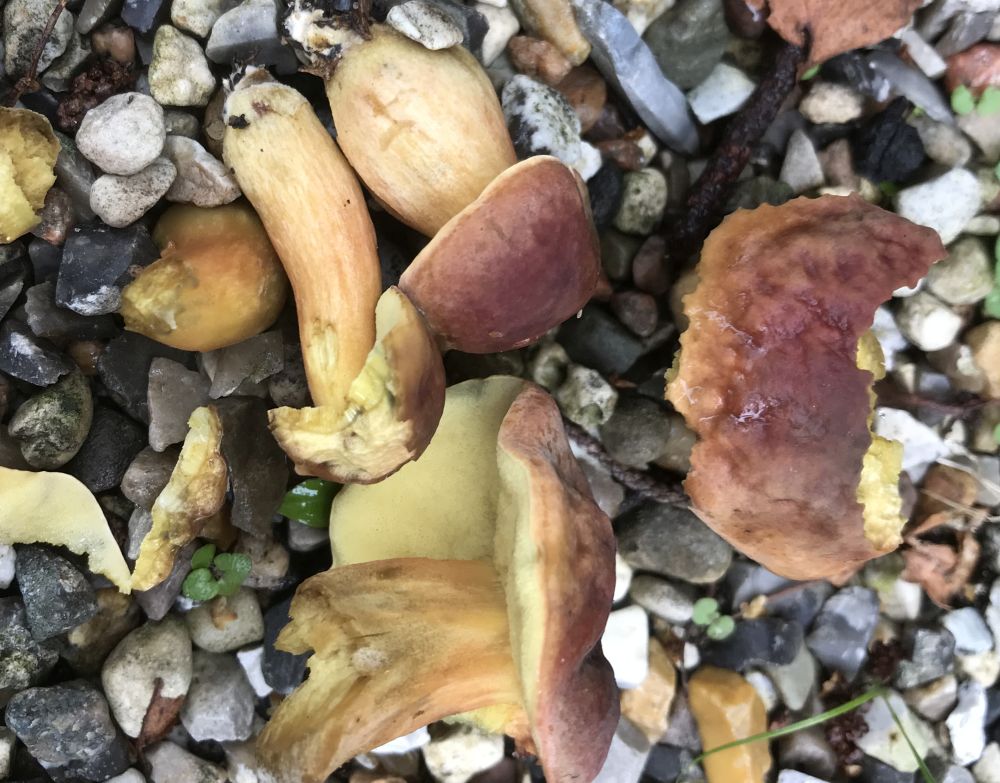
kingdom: Fungi
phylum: Basidiomycota
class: Agaricomycetes
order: Boletales
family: Boletaceae
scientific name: Boletaceae
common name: rørhatfamilien
